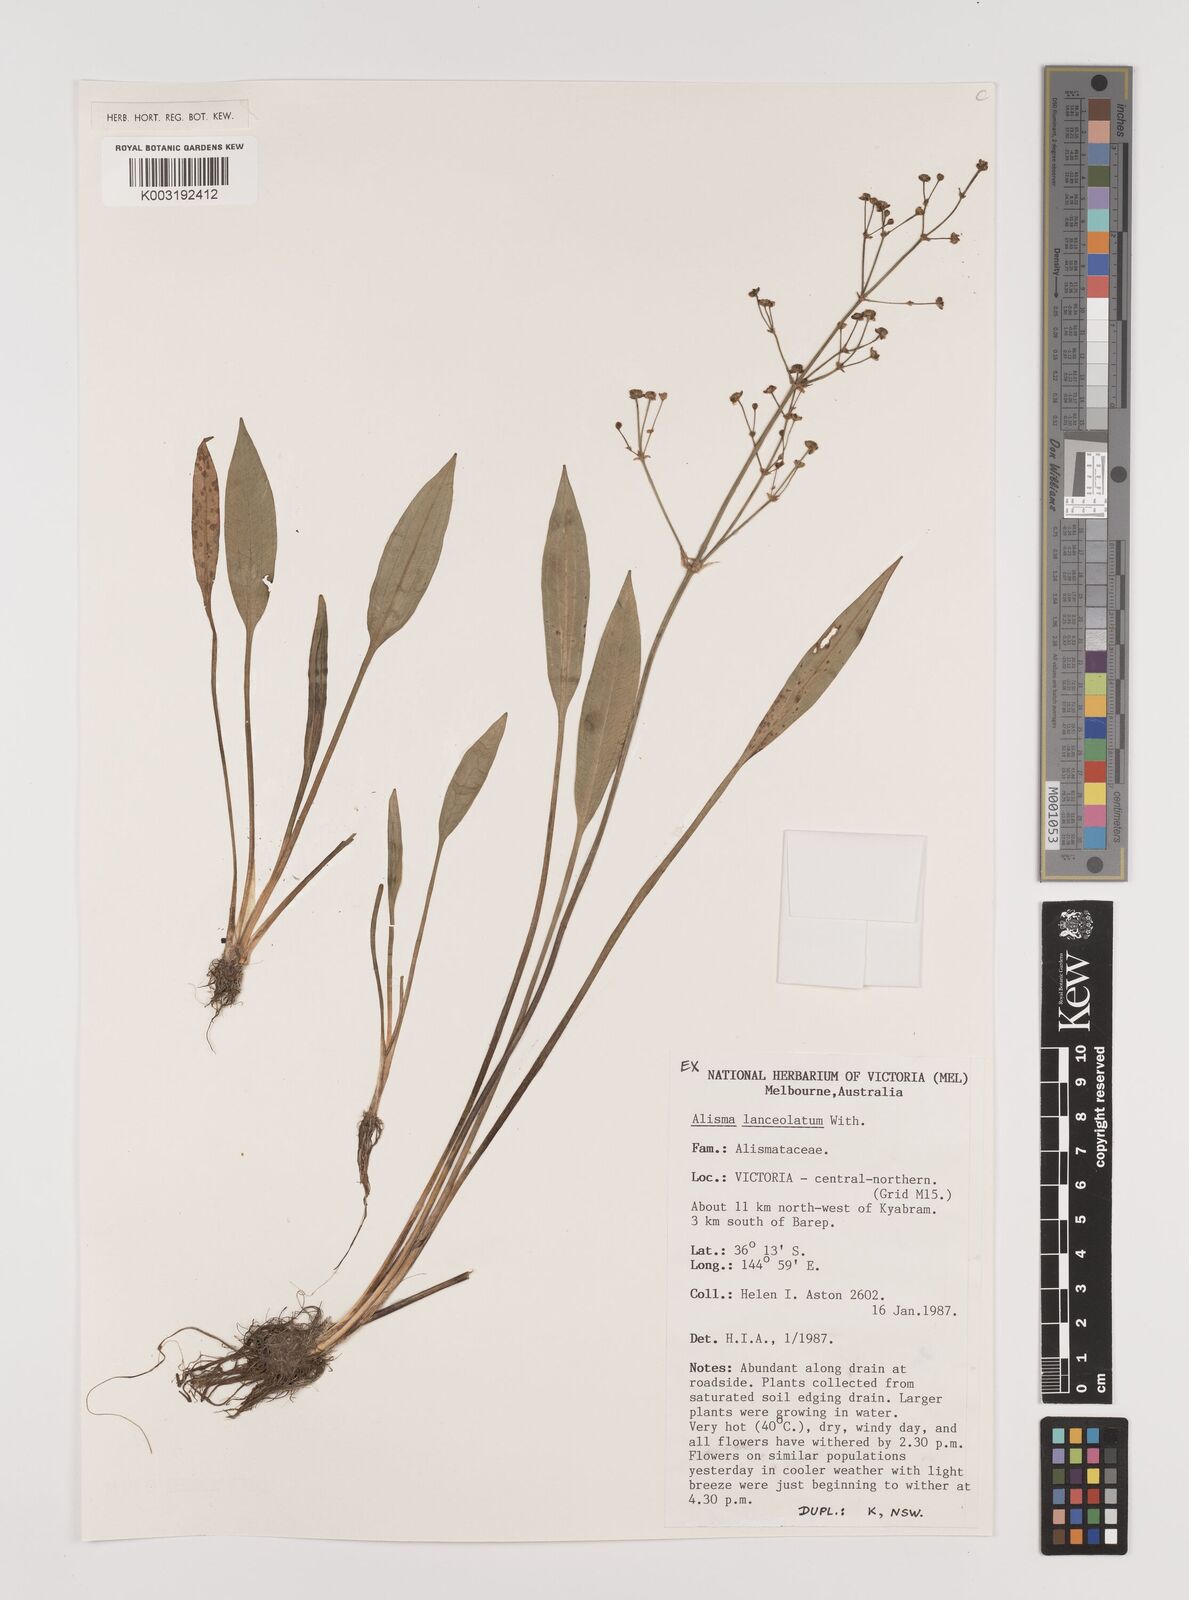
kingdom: Plantae
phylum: Tracheophyta
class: Liliopsida
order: Alismatales
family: Alismataceae
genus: Alisma
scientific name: Alisma lanceolatum
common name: Narrow-leaved water-plantain
